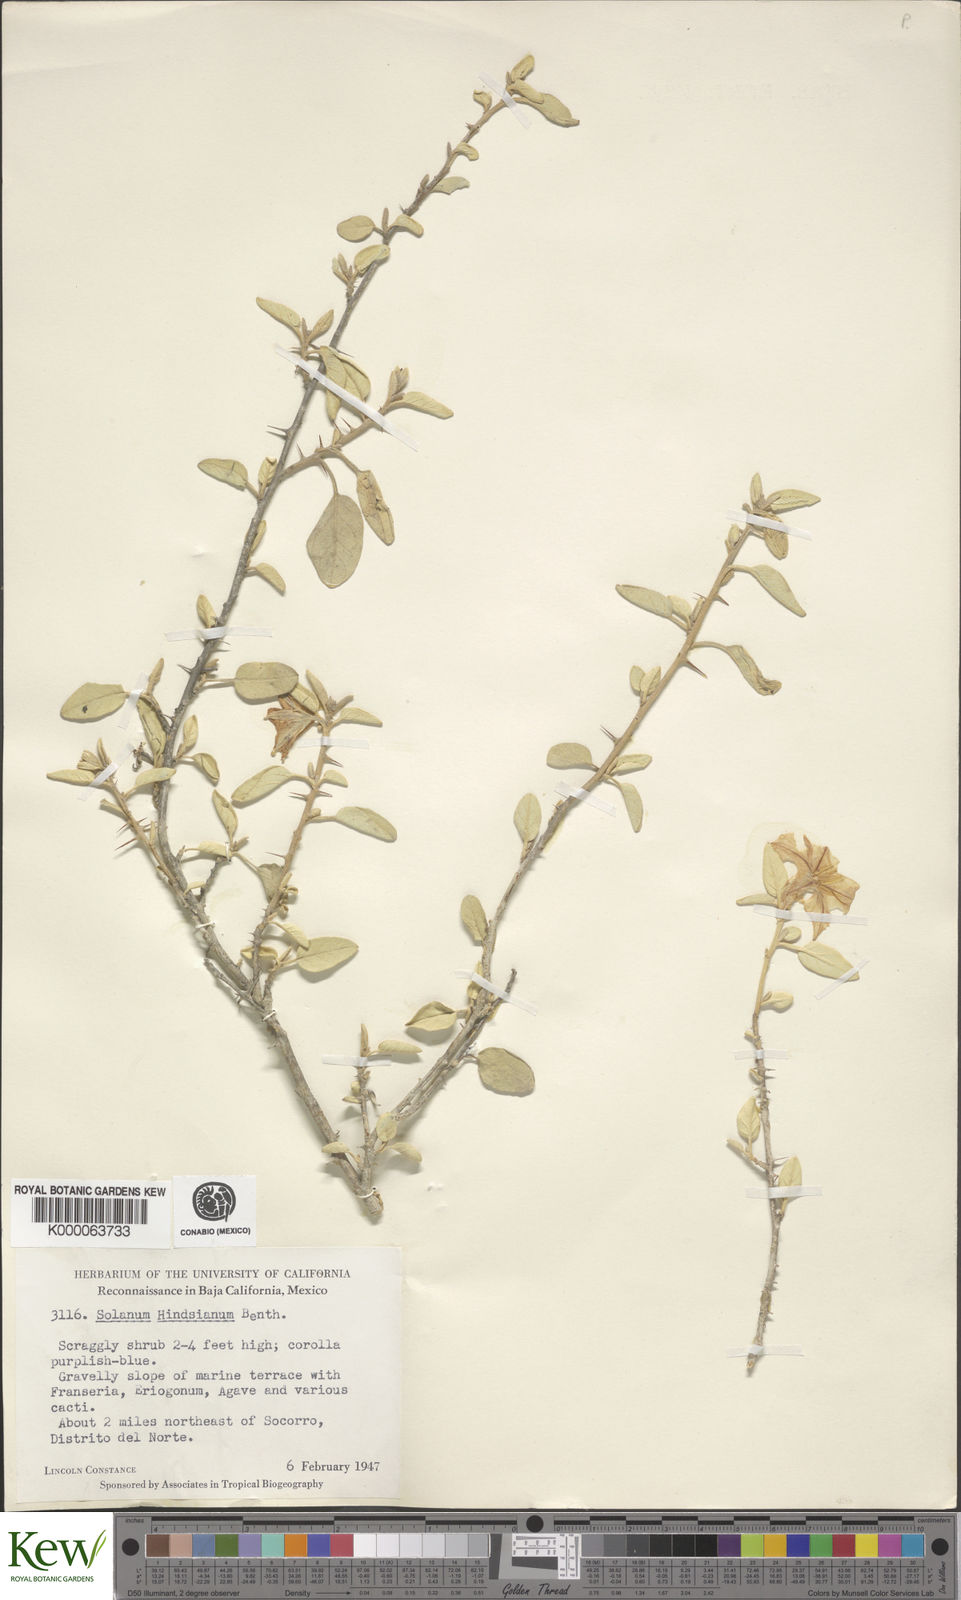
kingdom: Plantae
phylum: Tracheophyta
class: Magnoliopsida
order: Solanales
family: Solanaceae
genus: Solanum
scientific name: Solanum hindsianum
